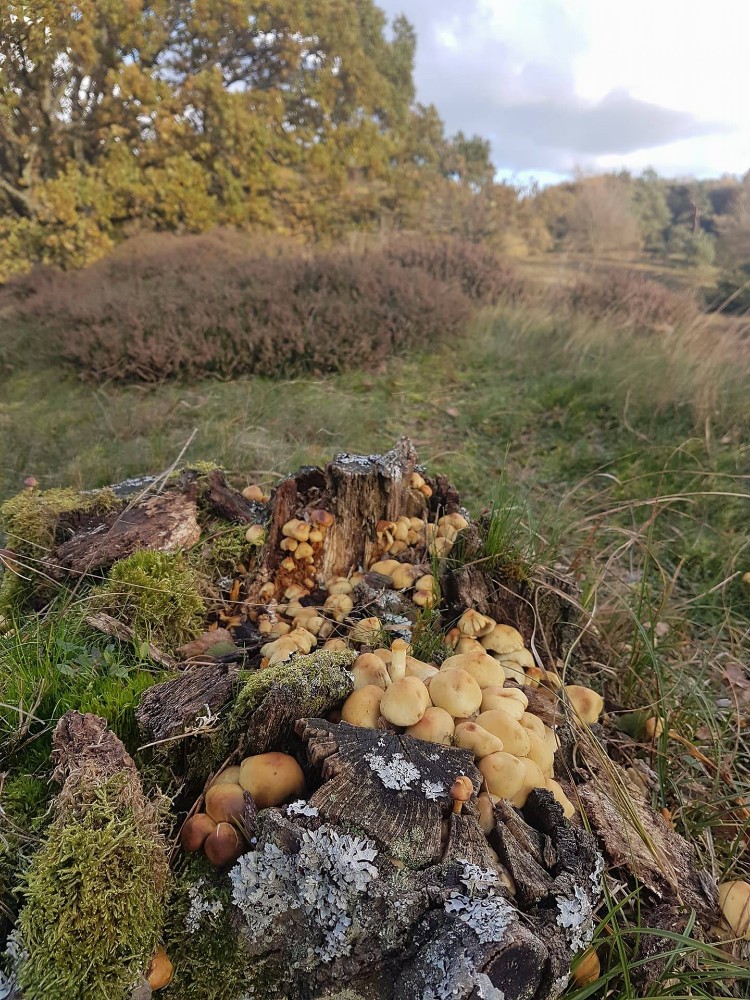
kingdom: Fungi
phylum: Basidiomycota
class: Agaricomycetes
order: Agaricales
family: Strophariaceae
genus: Hypholoma
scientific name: Hypholoma fasciculare
